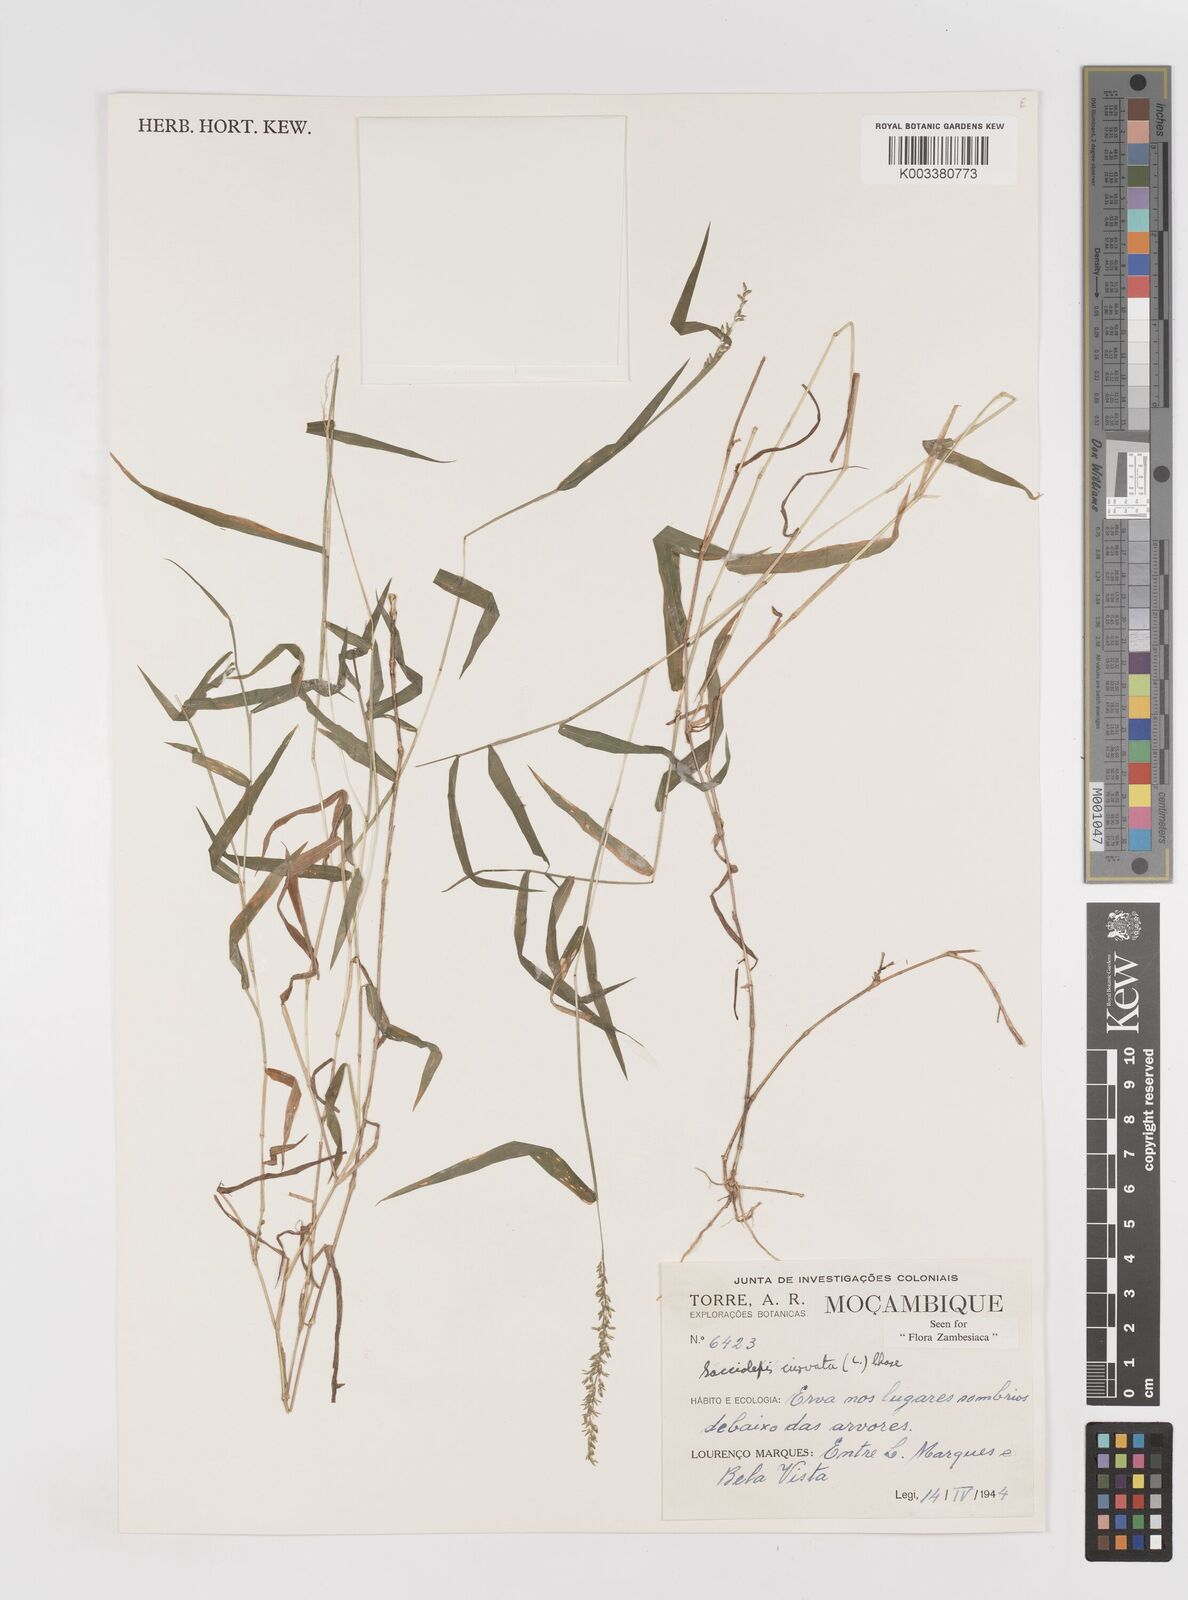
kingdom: Plantae
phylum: Tracheophyta
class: Liliopsida
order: Poales
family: Poaceae
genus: Sacciolepis
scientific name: Sacciolepis curvata
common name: Forest hood grass
